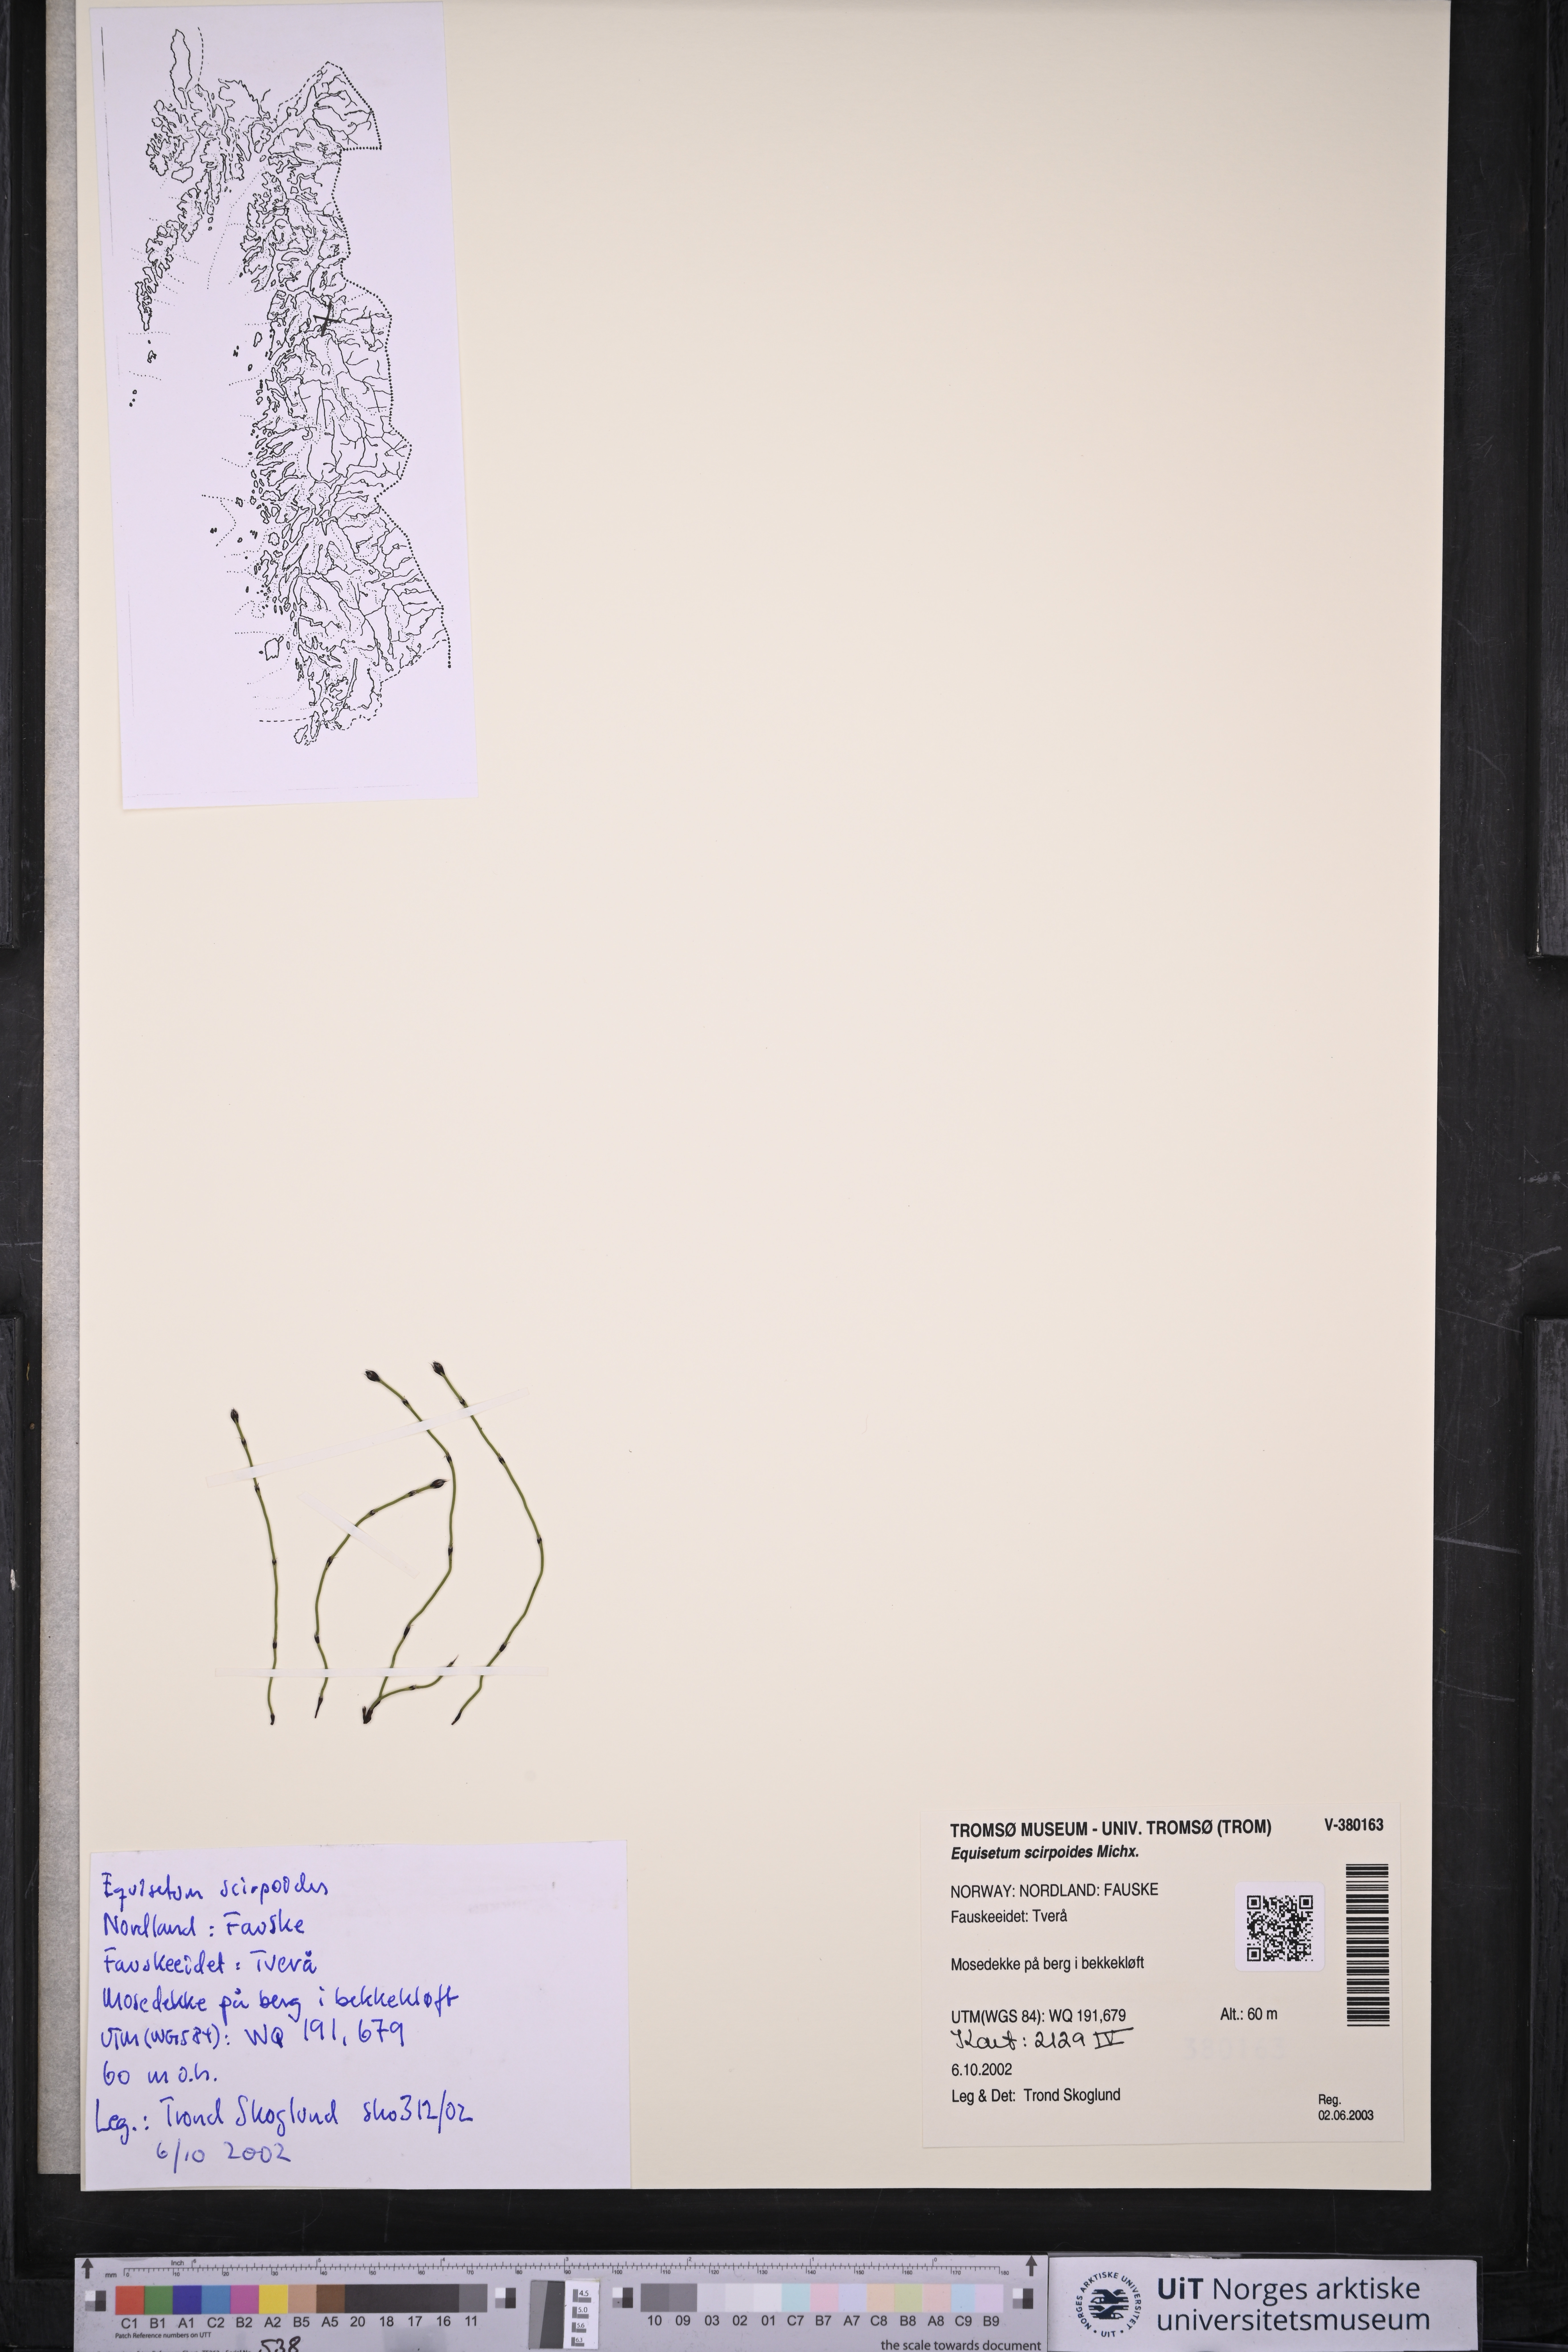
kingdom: Plantae
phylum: Tracheophyta
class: Polypodiopsida
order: Equisetales
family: Equisetaceae
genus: Equisetum
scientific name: Equisetum scirpoides
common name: Delicate horsetail
